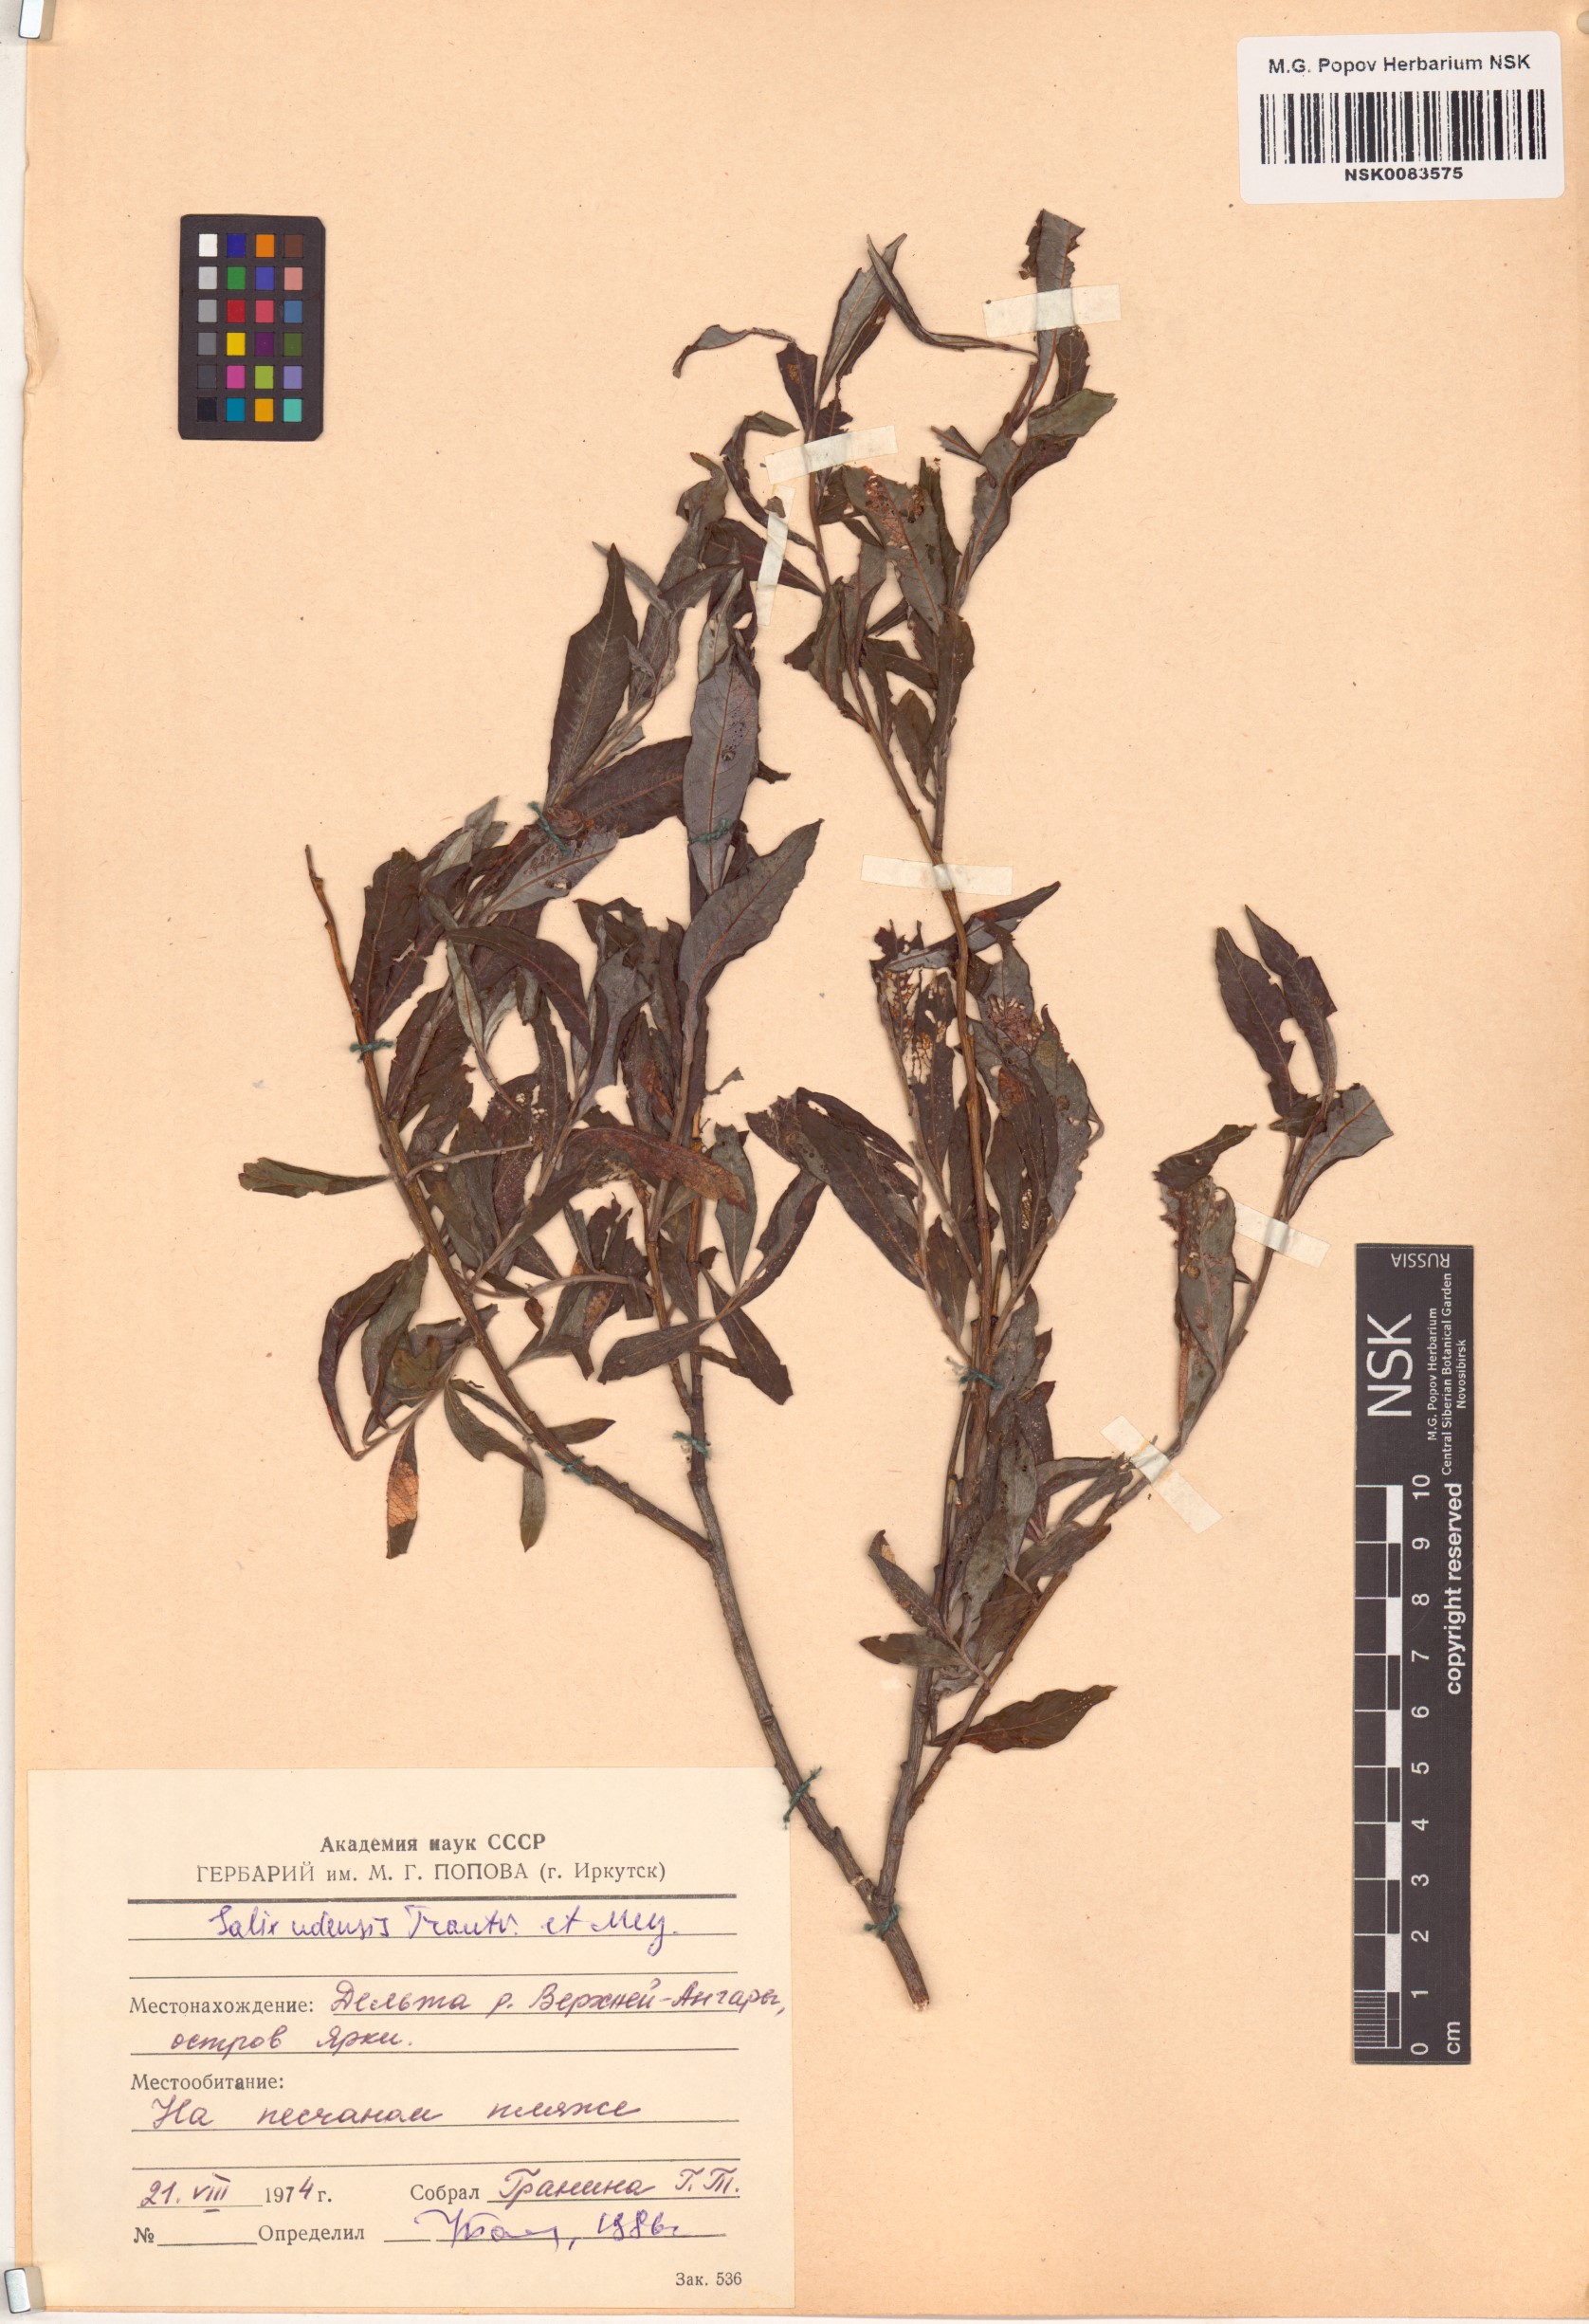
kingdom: Plantae
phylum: Tracheophyta
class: Magnoliopsida
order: Malpighiales
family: Salicaceae
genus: Salix
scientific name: Salix udensis
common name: Sachalin willow
